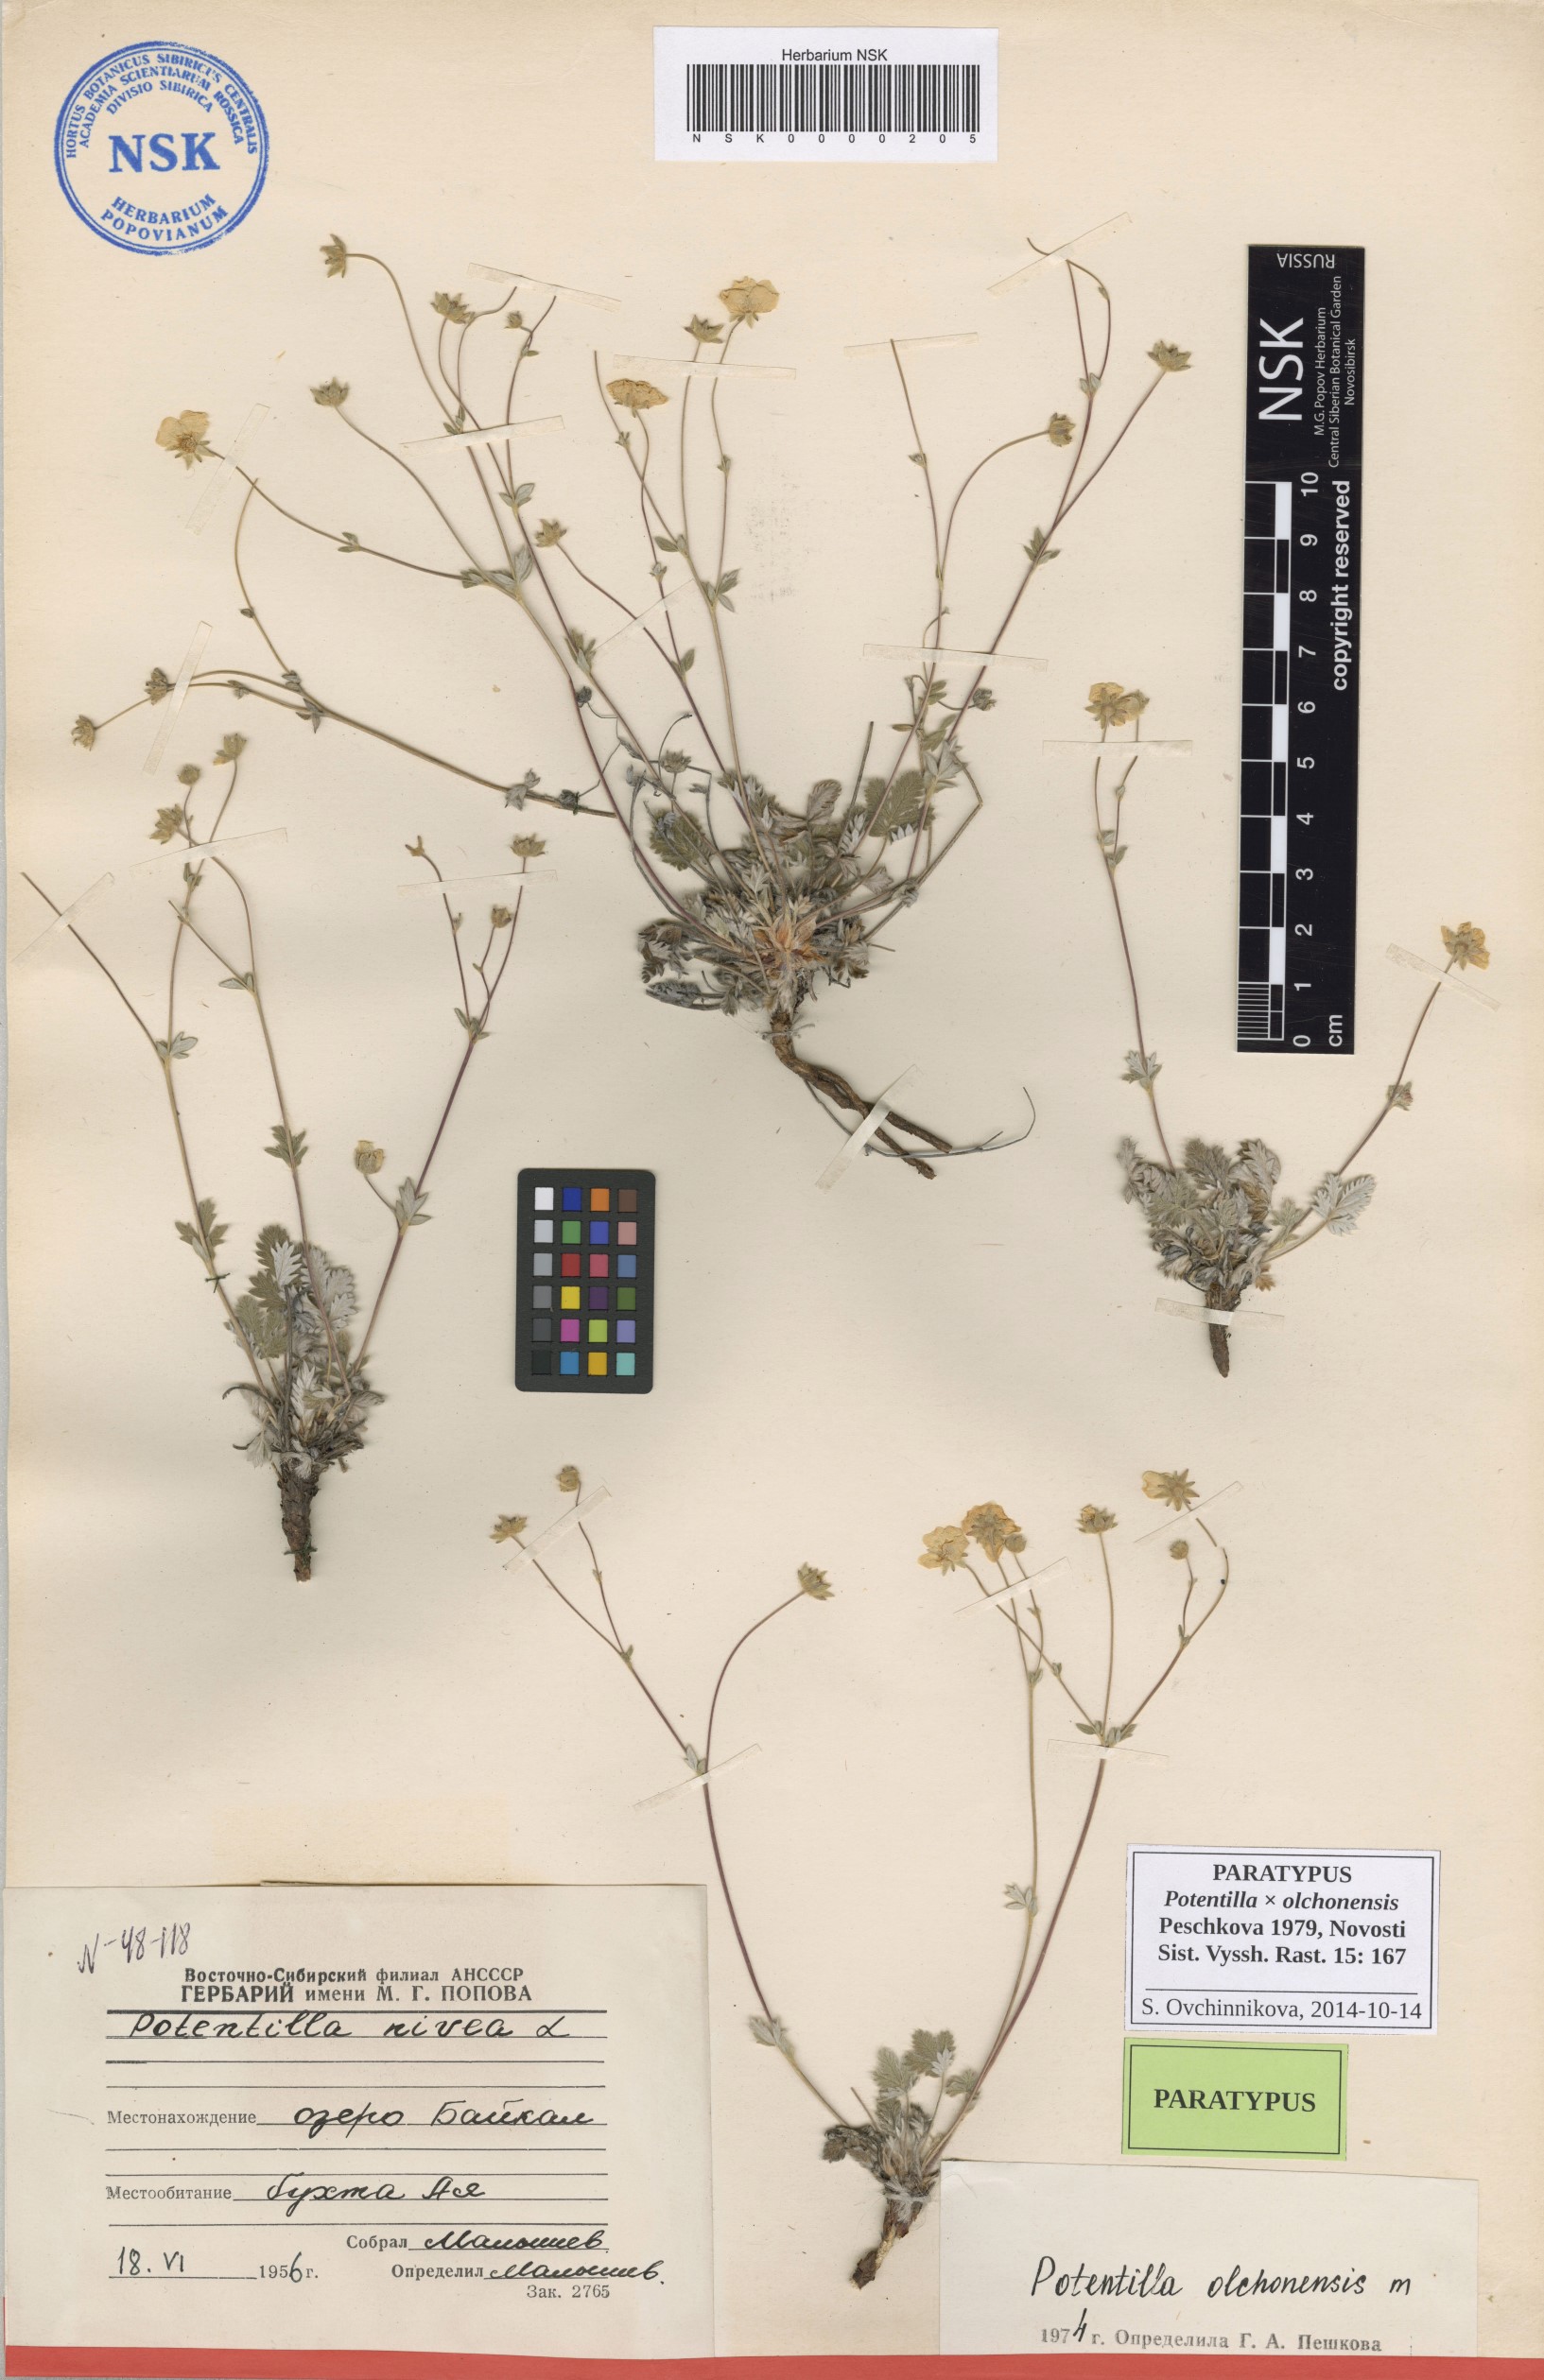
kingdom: Plantae
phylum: Tracheophyta
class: Magnoliopsida
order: Rosales
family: Rosaceae
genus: Potentilla
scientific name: Potentilla olchonensis
